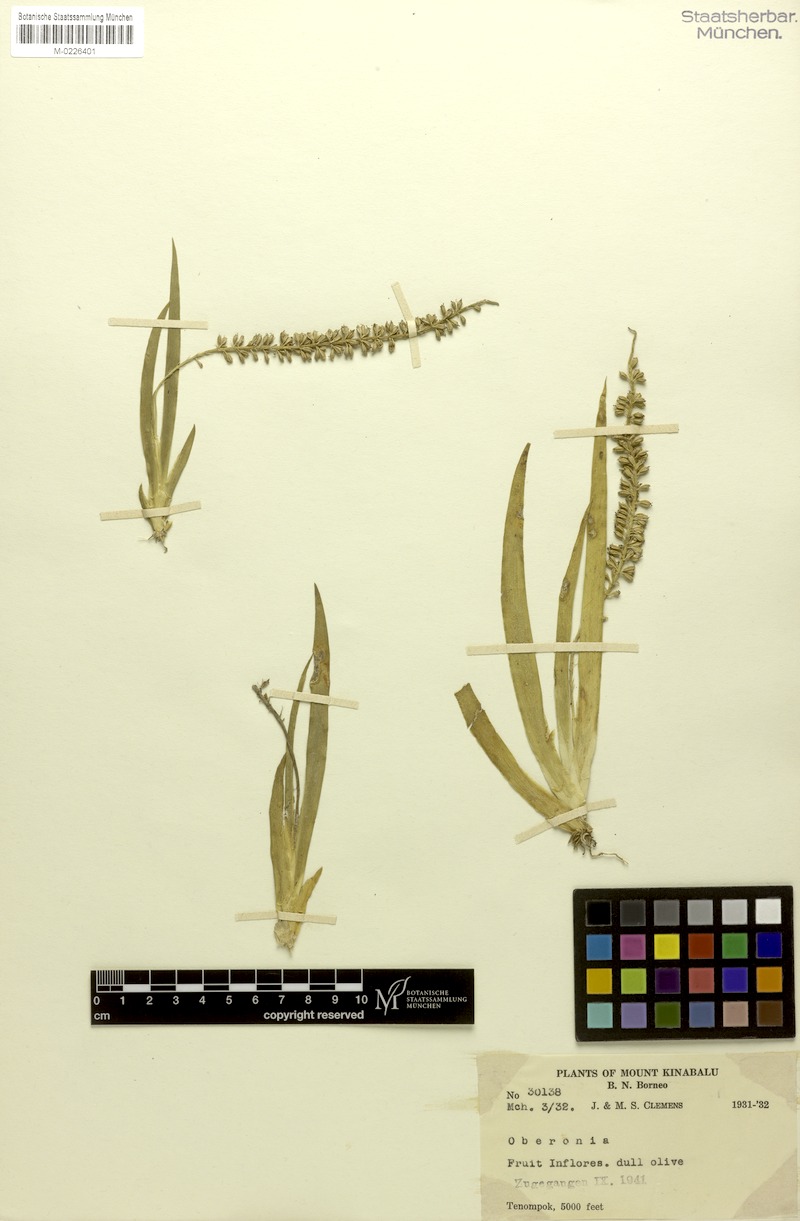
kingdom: Plantae
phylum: Tracheophyta
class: Liliopsida
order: Asparagales
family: Orchidaceae
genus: Oberonia
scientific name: Oberonia
